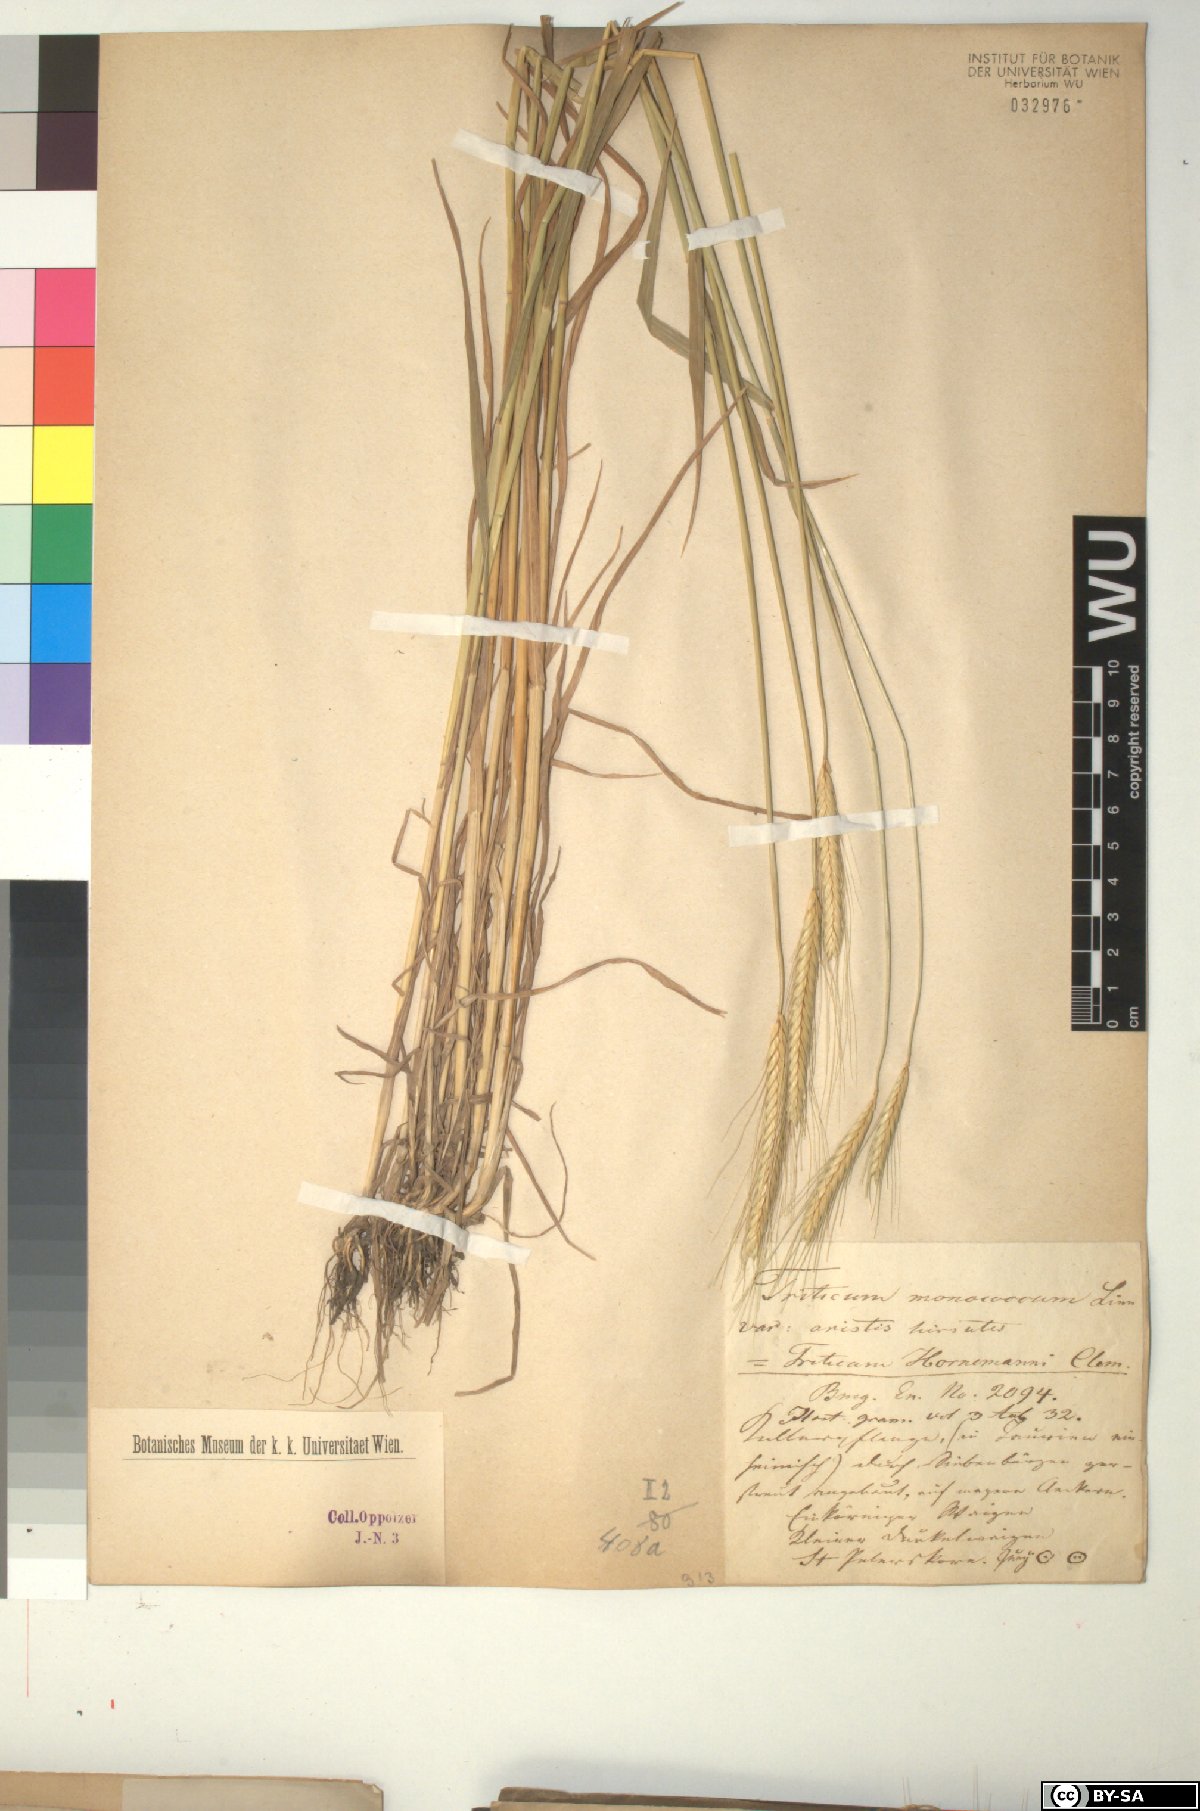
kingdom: Plantae
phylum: Tracheophyta
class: Liliopsida
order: Poales
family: Poaceae
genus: Triticum
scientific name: Triticum monococcum
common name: Einkorn
